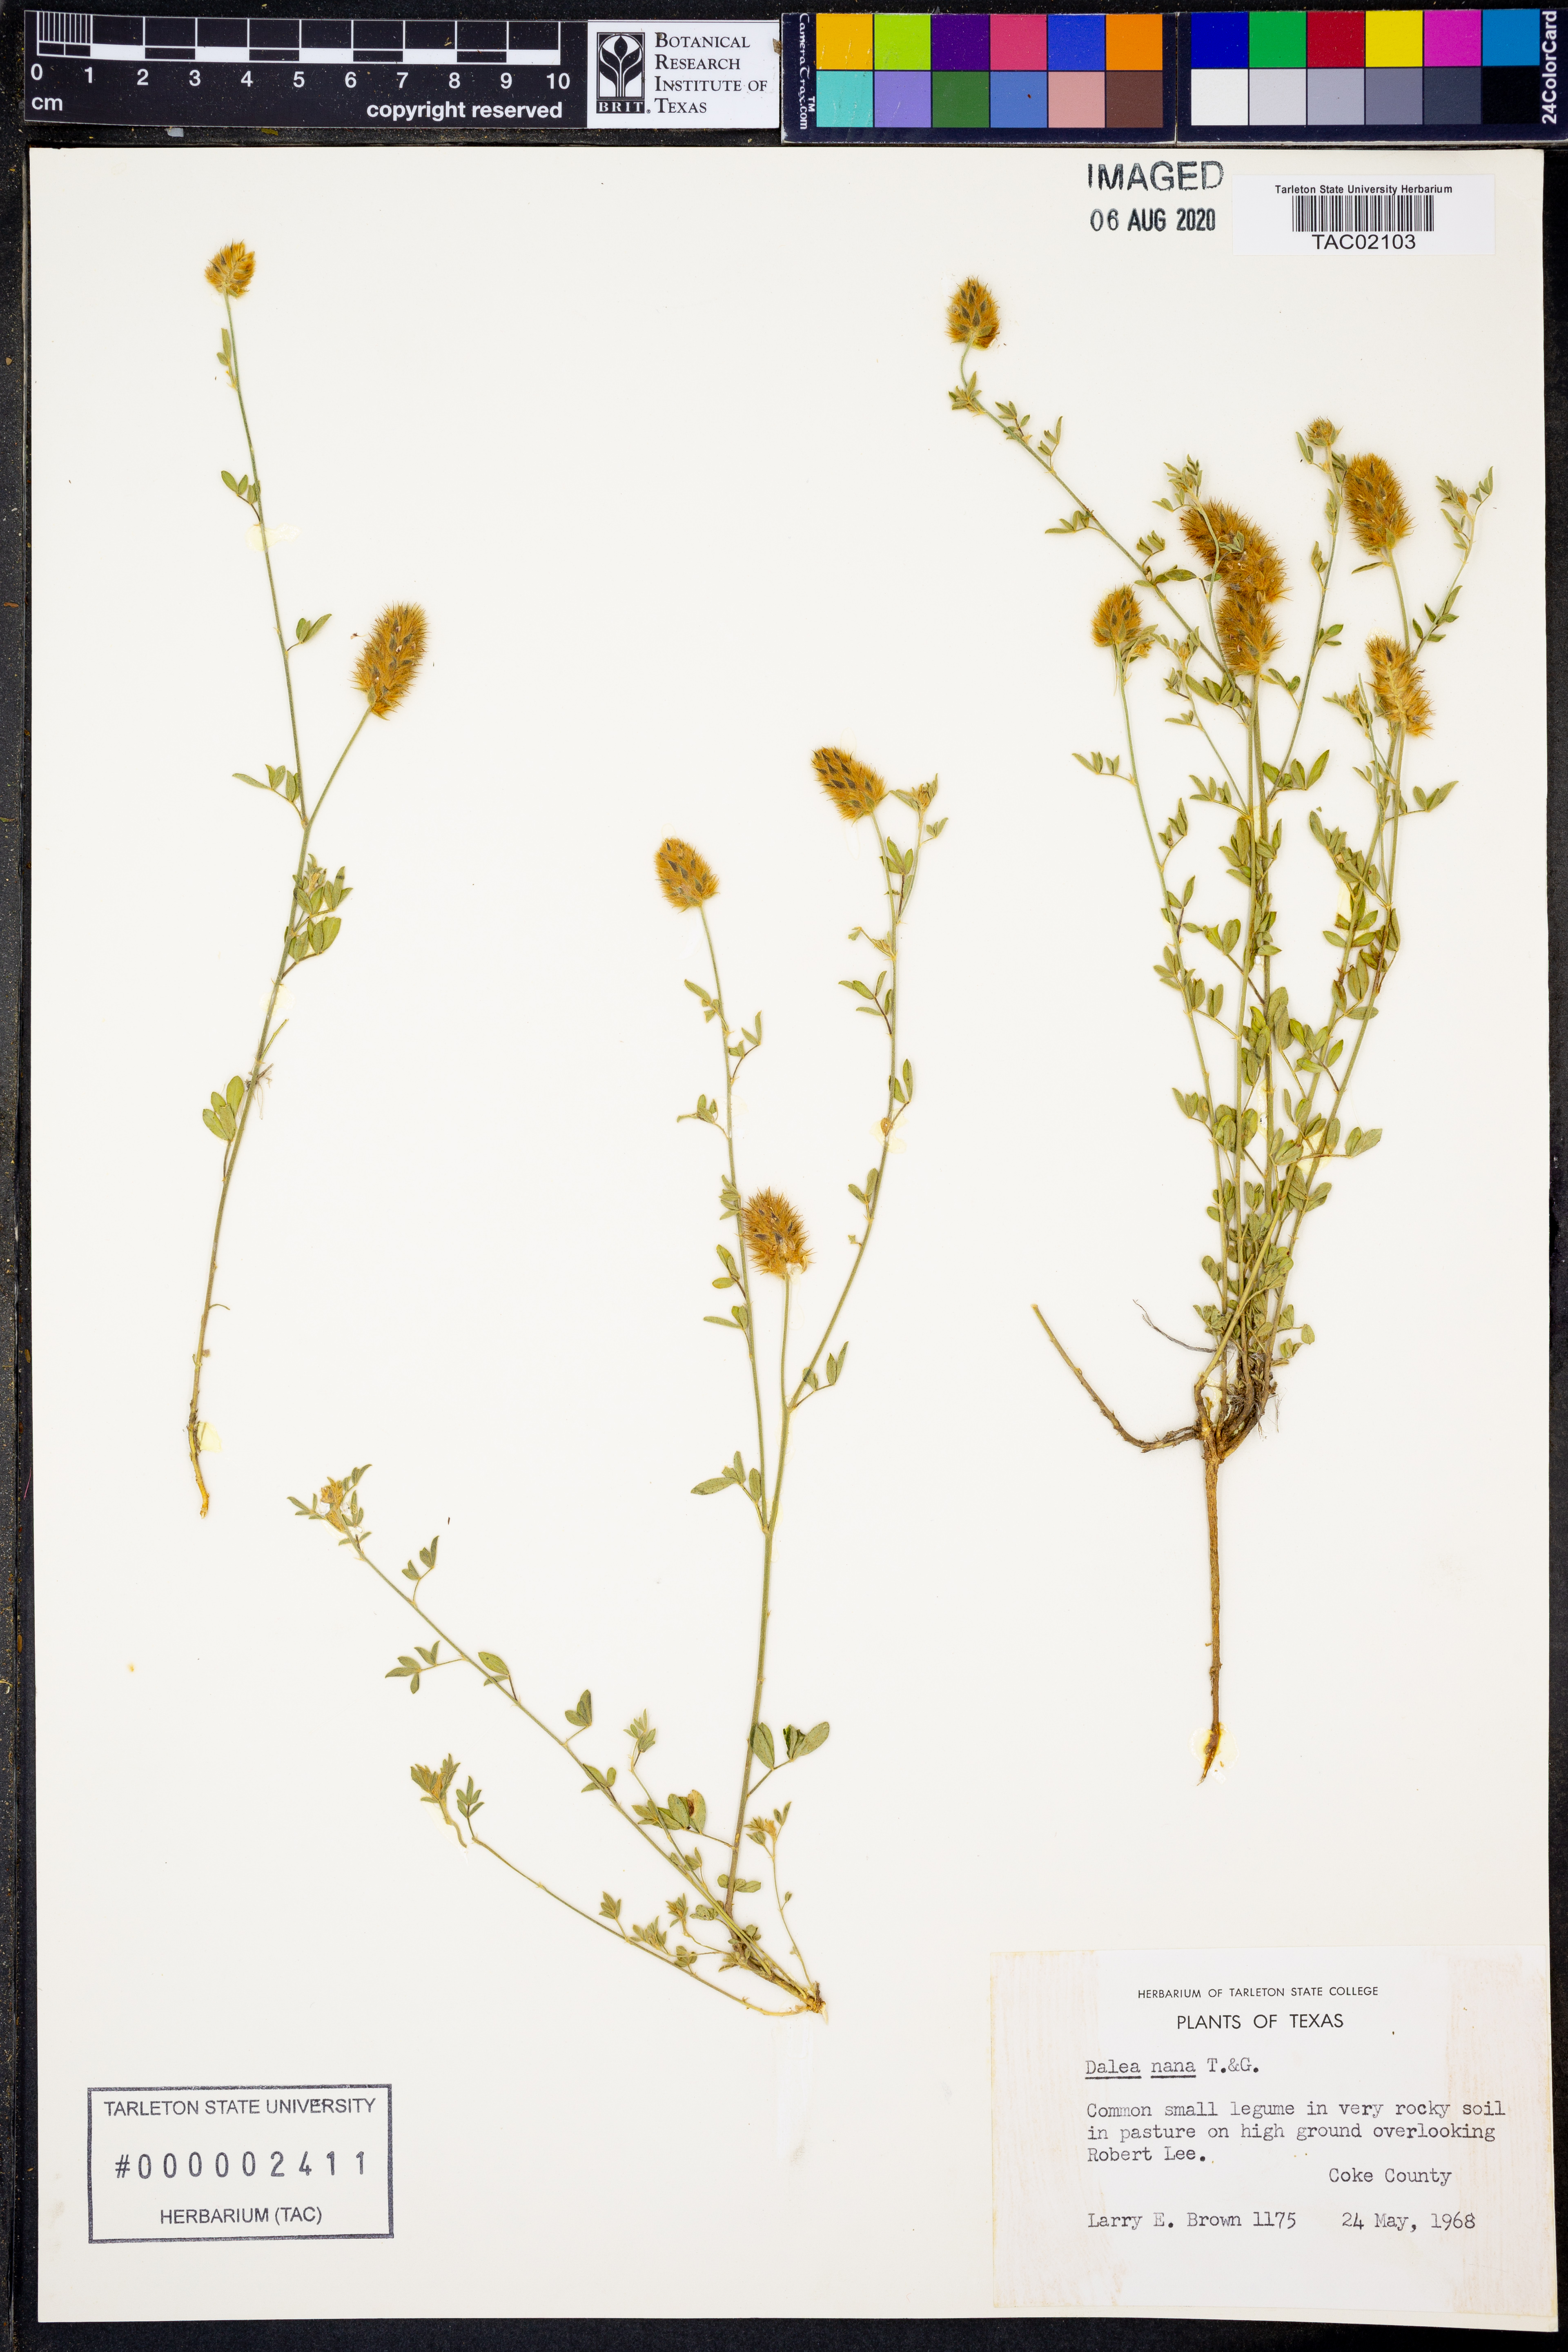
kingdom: Plantae
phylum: Tracheophyta
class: Magnoliopsida
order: Fabales
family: Fabaceae
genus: Dalea
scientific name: Dalea nana
